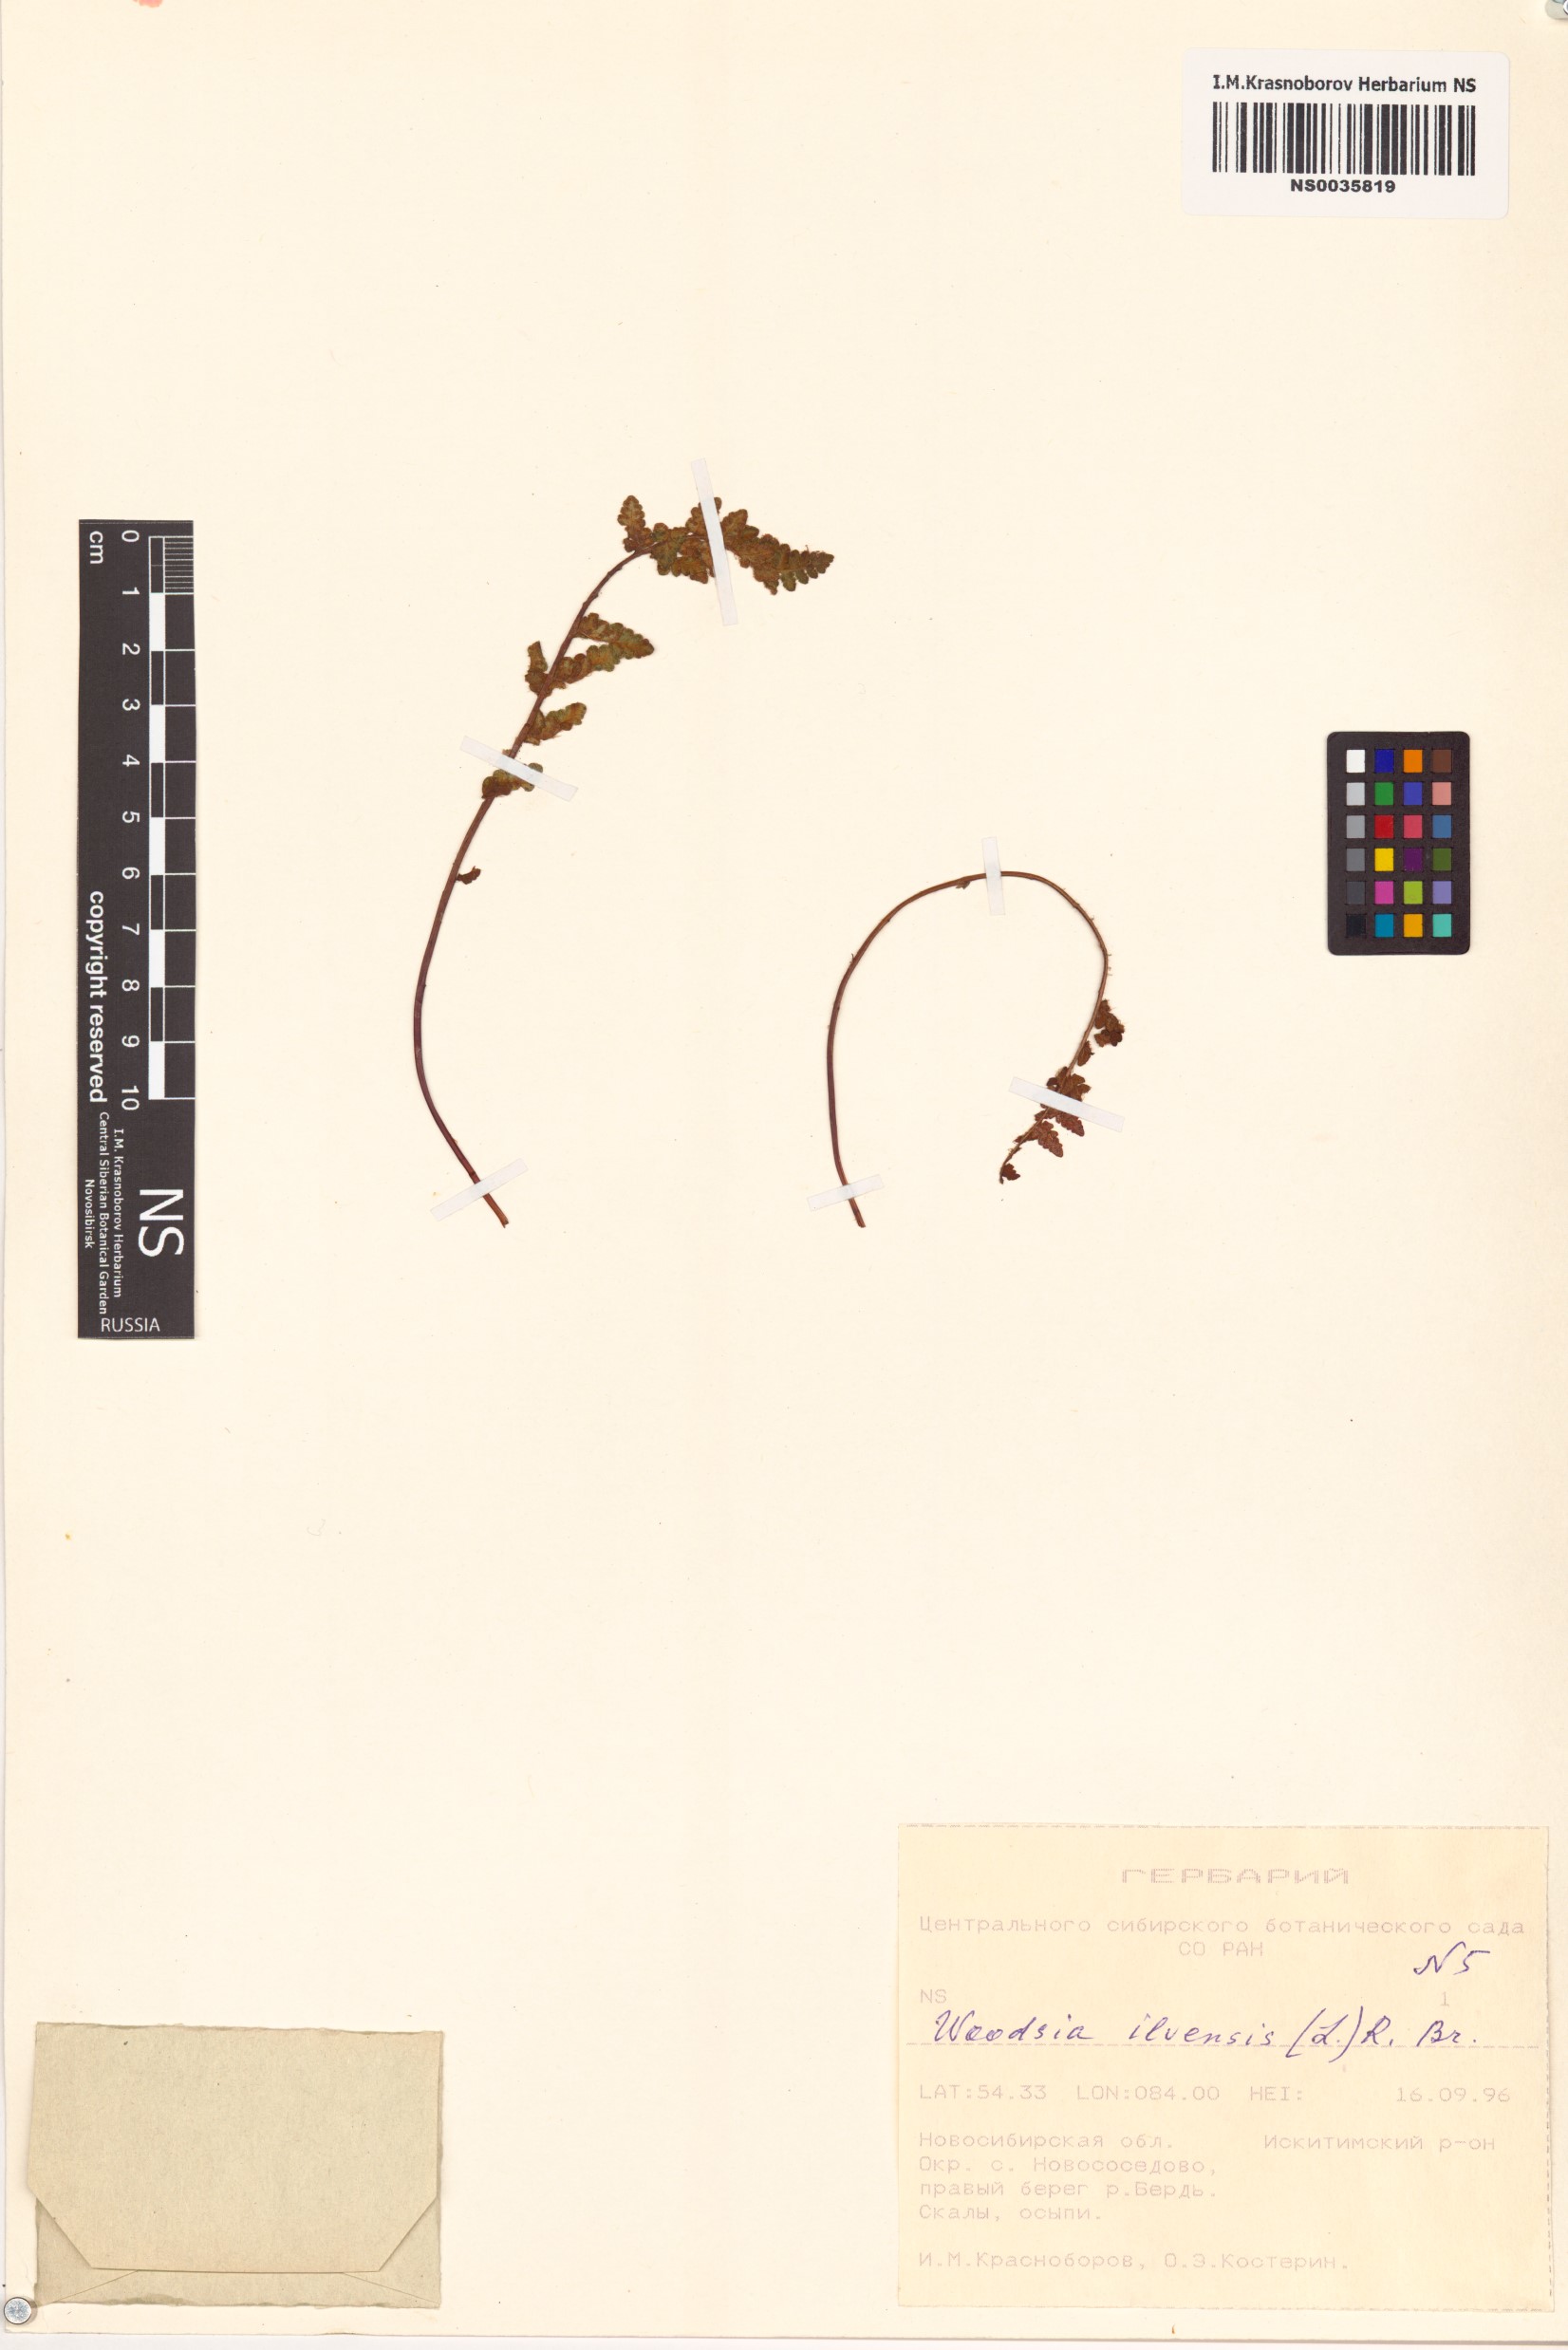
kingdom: Plantae
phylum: Tracheophyta
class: Polypodiopsida
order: Polypodiales
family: Woodsiaceae
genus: Woodsia
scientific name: Woodsia ilvensis
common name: Fragrant woodsia
